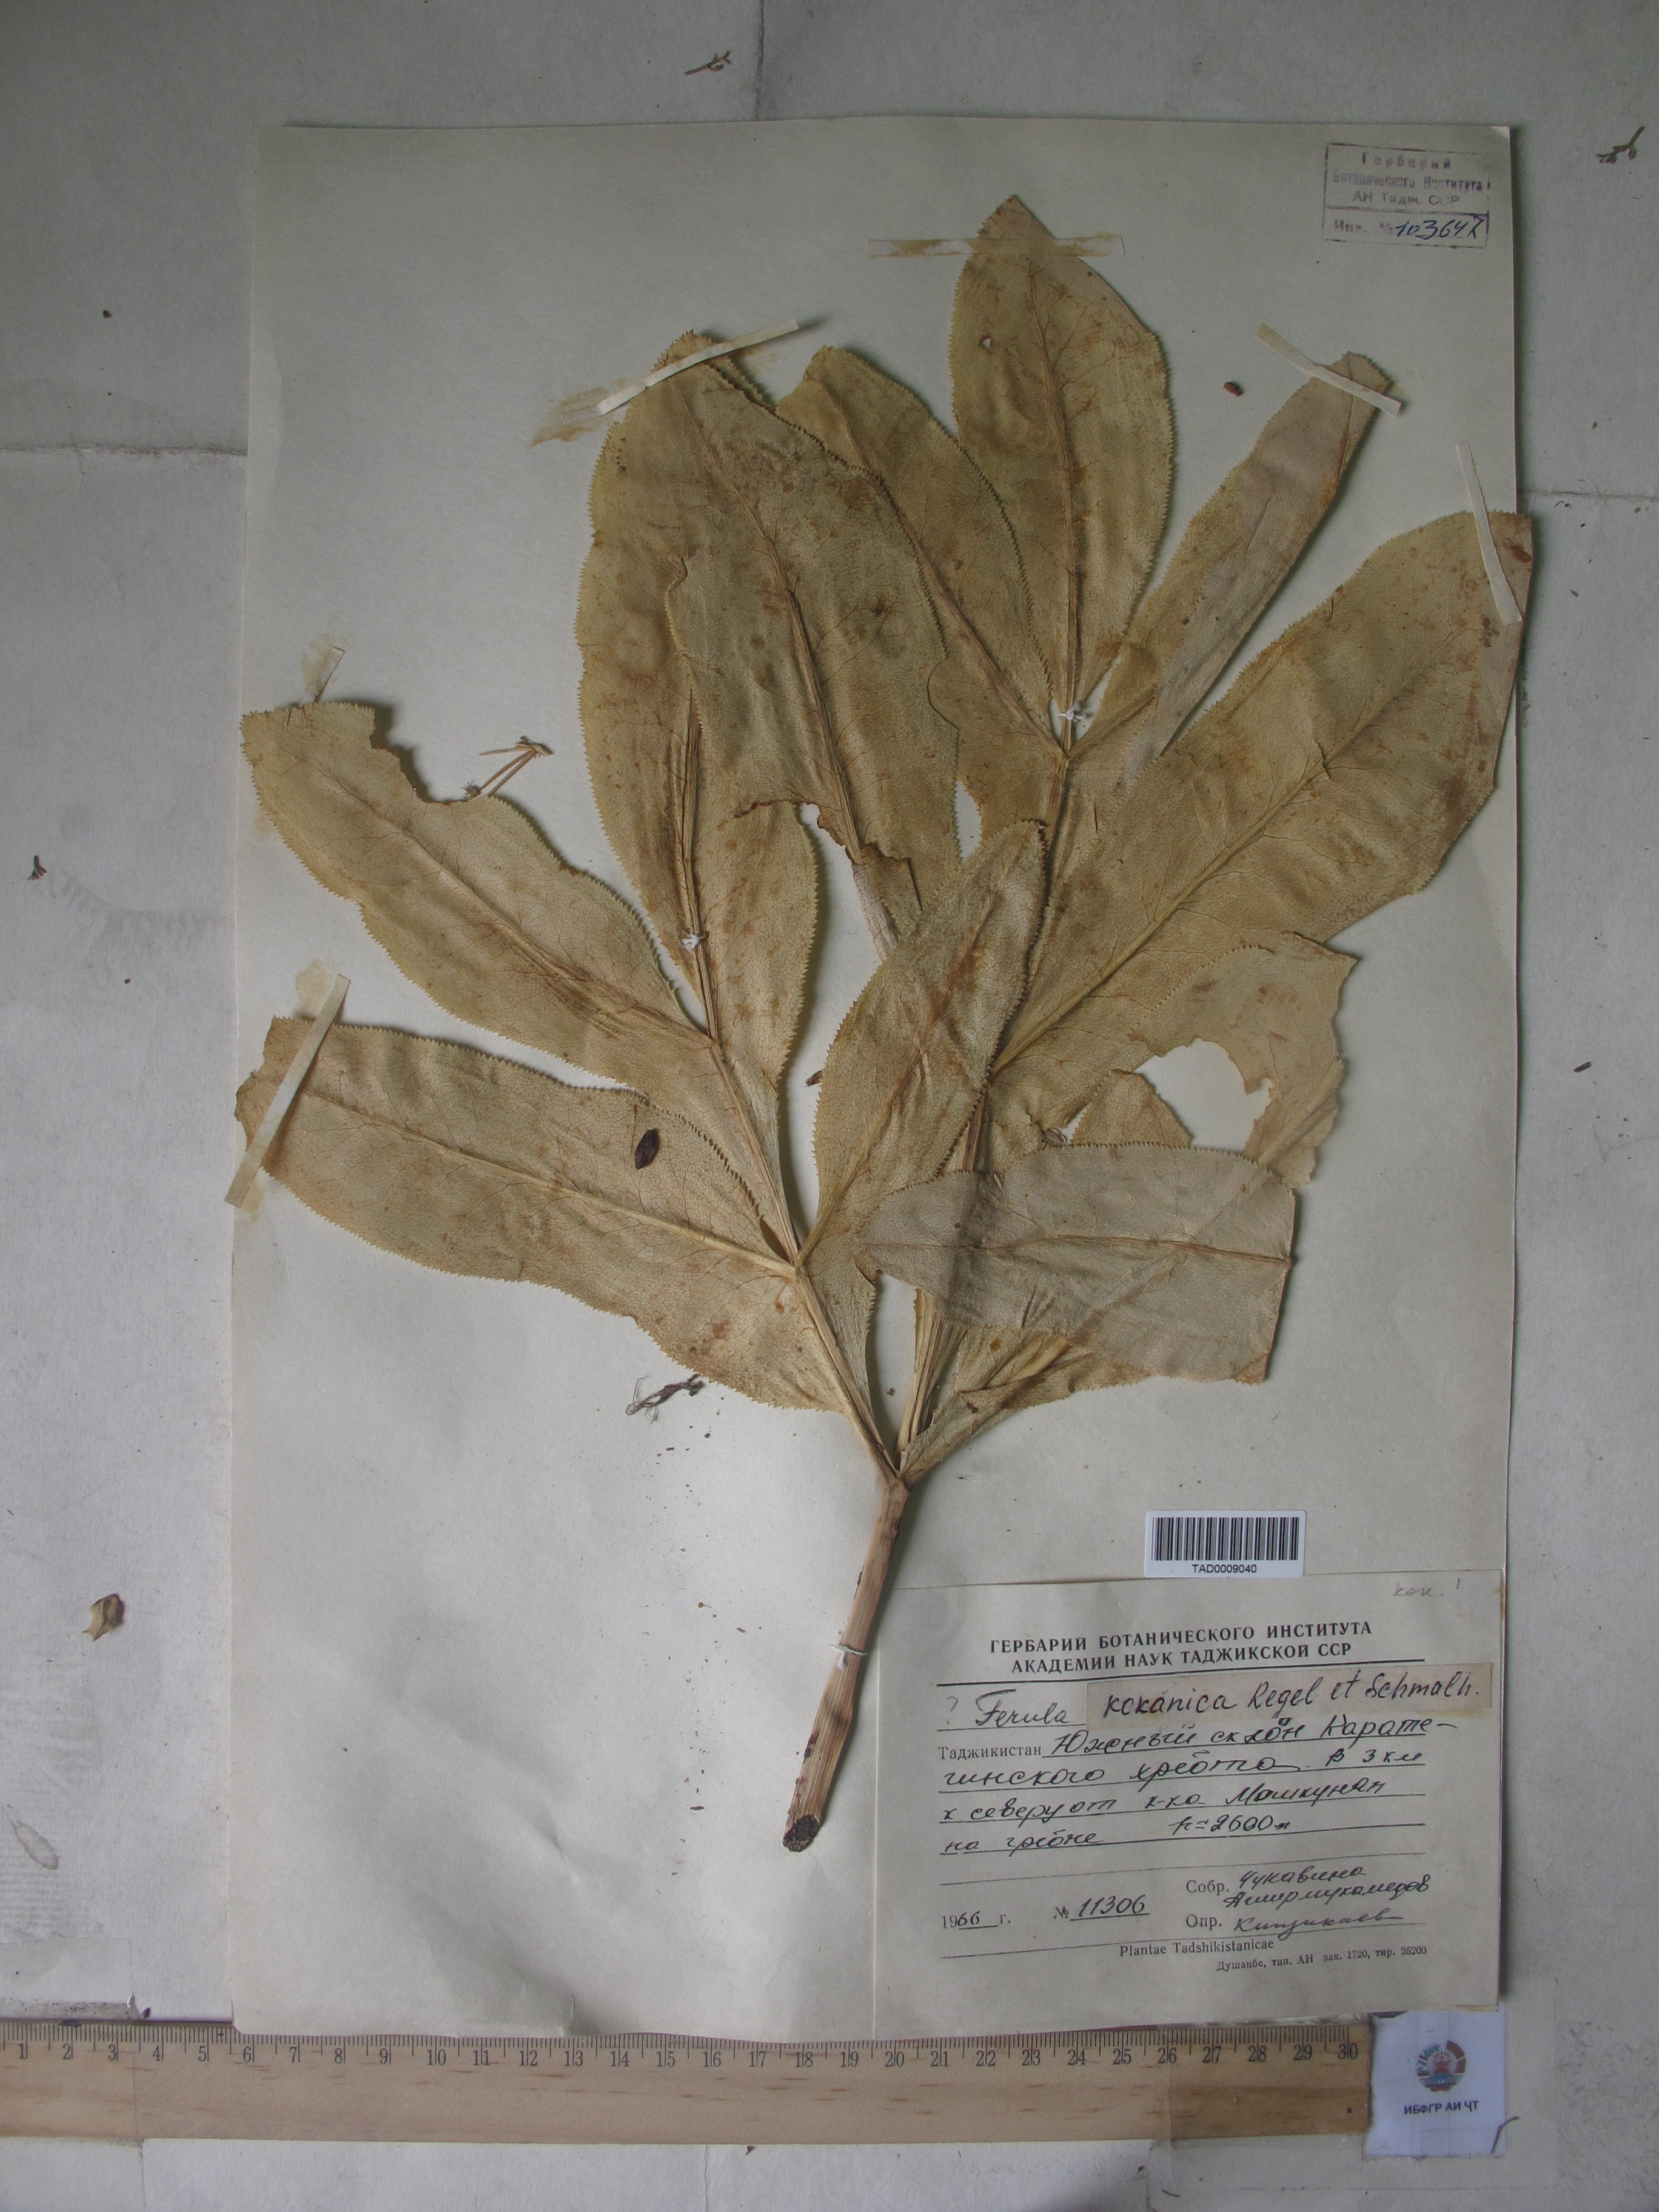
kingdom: Plantae
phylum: Tracheophyta
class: Magnoliopsida
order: Apiales
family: Apiaceae
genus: Ferula
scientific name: Ferula kokanica
